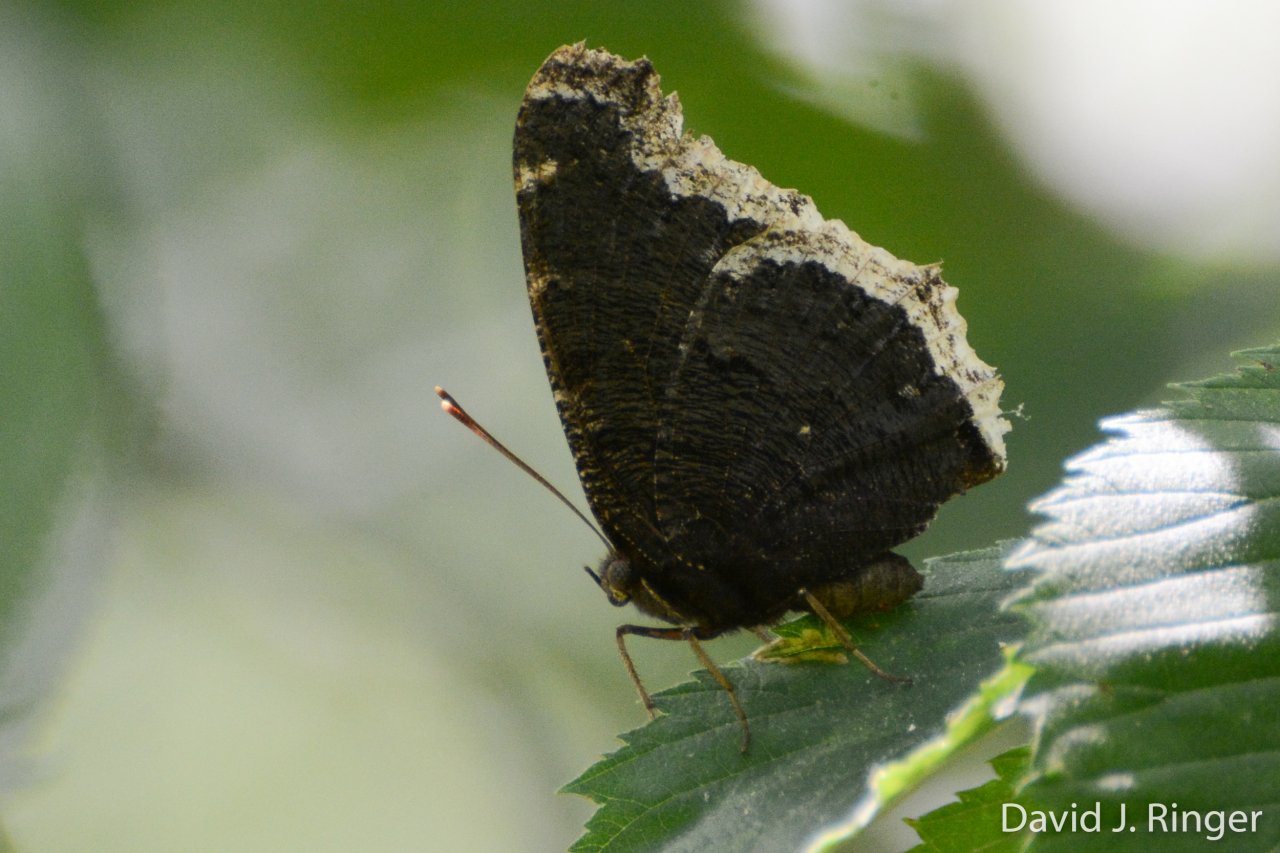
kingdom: Animalia
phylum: Arthropoda
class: Insecta
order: Lepidoptera
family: Nymphalidae
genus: Nymphalis
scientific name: Nymphalis antiopa
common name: Mourning Cloak
